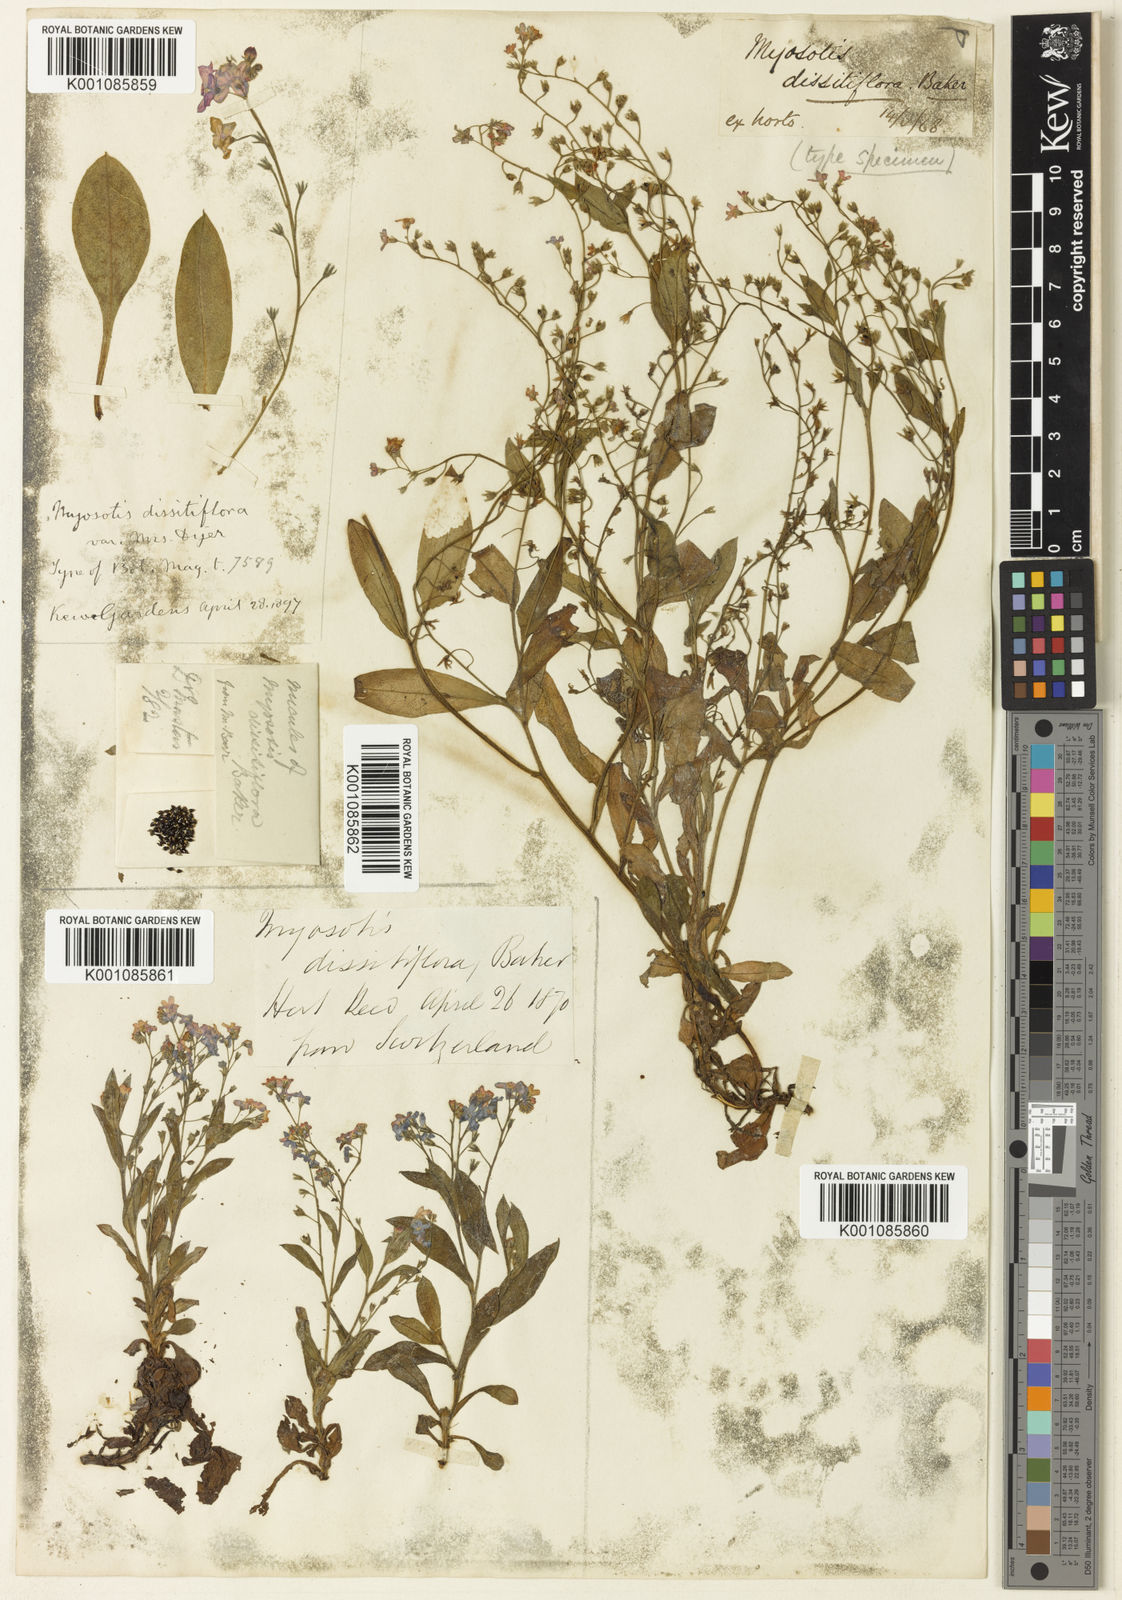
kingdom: Plantae
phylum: Tracheophyta
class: Magnoliopsida
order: Boraginales
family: Boraginaceae
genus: Myosotis
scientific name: Myosotis dissitiflora
